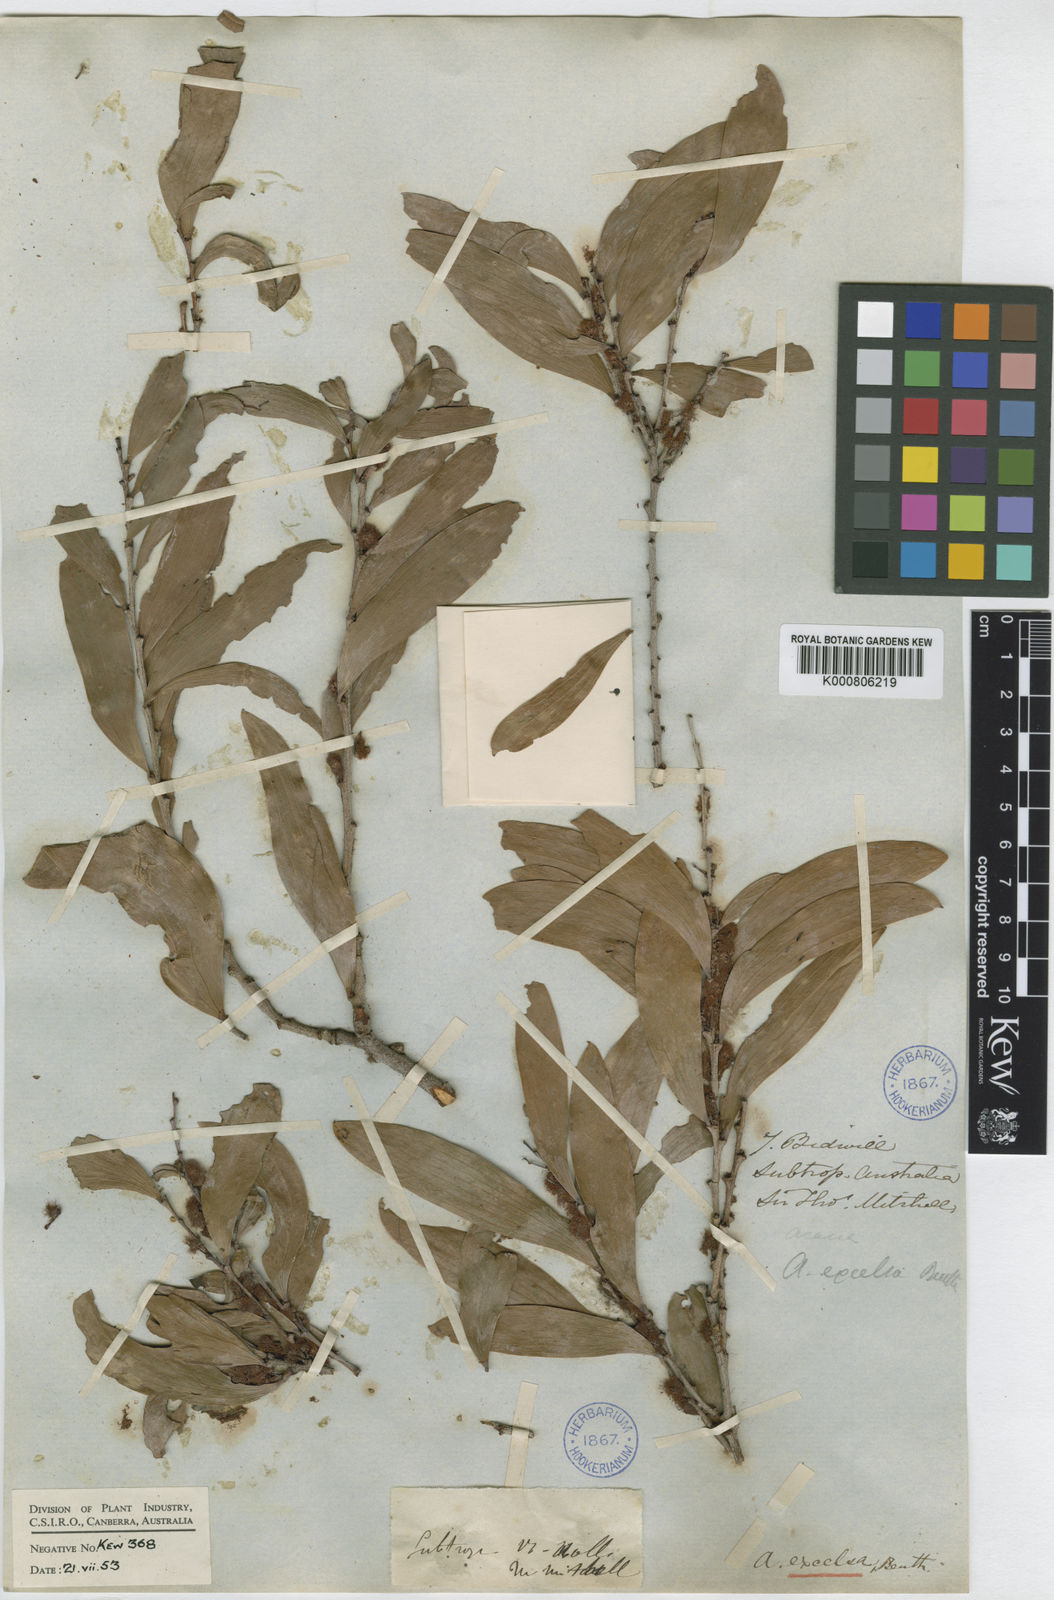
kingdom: Plantae
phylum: Tracheophyta
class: Magnoliopsida
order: Fabales
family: Fabaceae
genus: Acacia
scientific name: Acacia excelsa
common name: Ironwood
